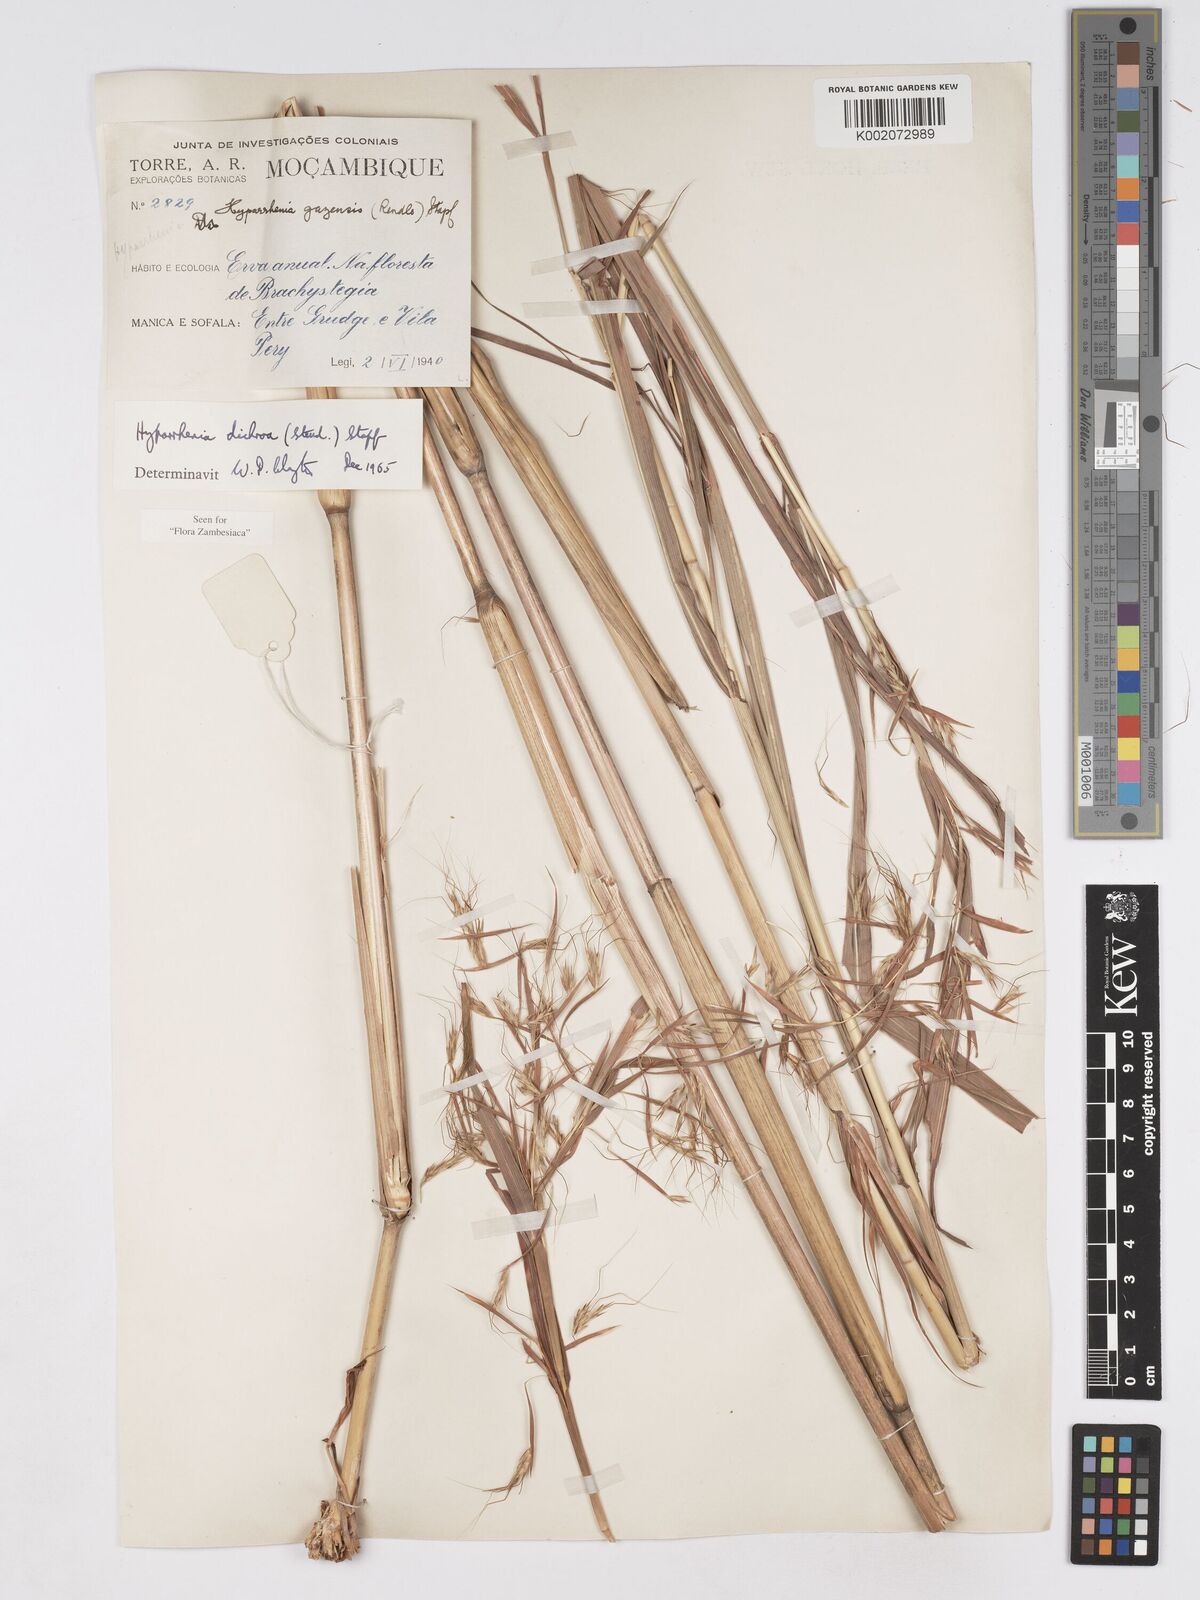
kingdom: Plantae
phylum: Tracheophyta
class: Liliopsida
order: Poales
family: Poaceae
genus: Hyparrhenia
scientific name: Hyparrhenia dichroa
